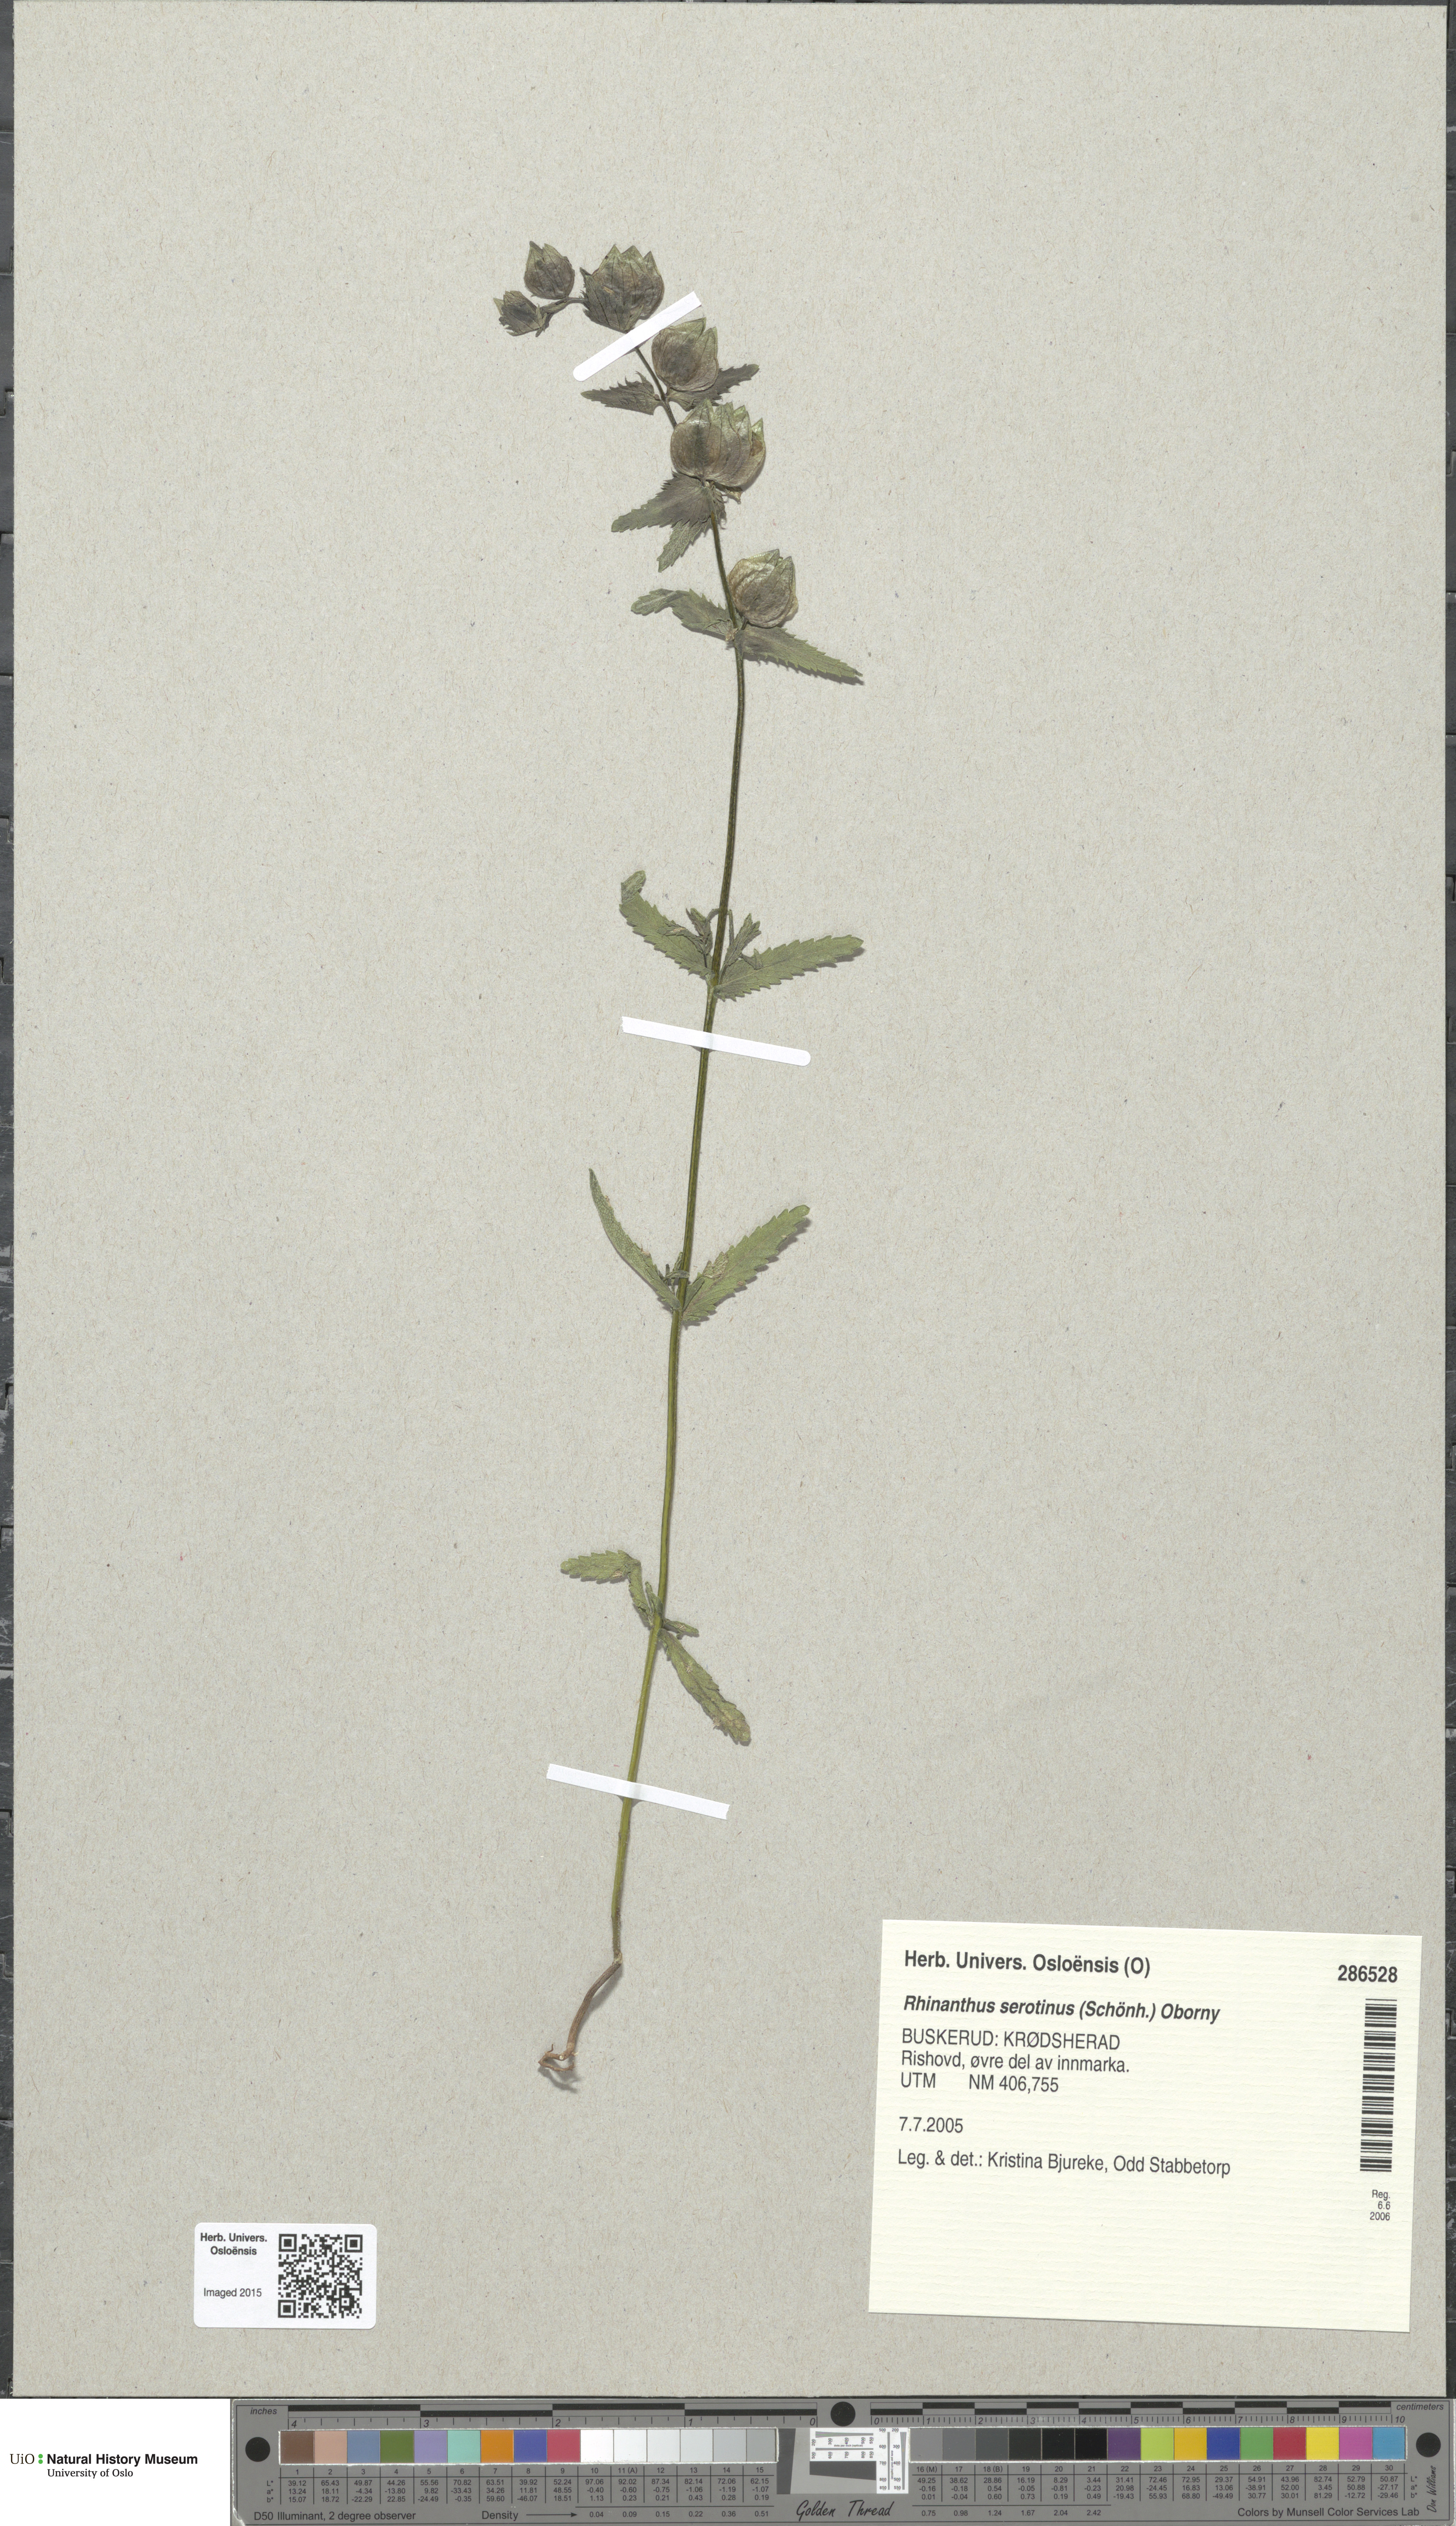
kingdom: Plantae
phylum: Tracheophyta
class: Magnoliopsida
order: Lamiales
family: Orobanchaceae
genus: Rhinanthus
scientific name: Rhinanthus
